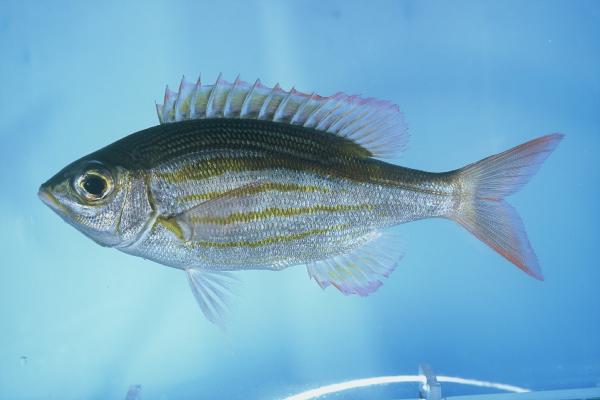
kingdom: Animalia
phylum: Chordata
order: Perciformes
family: Lethrinidae
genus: Gnathodentex
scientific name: Gnathodentex aureolineatus
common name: Gold-lined sea bream
